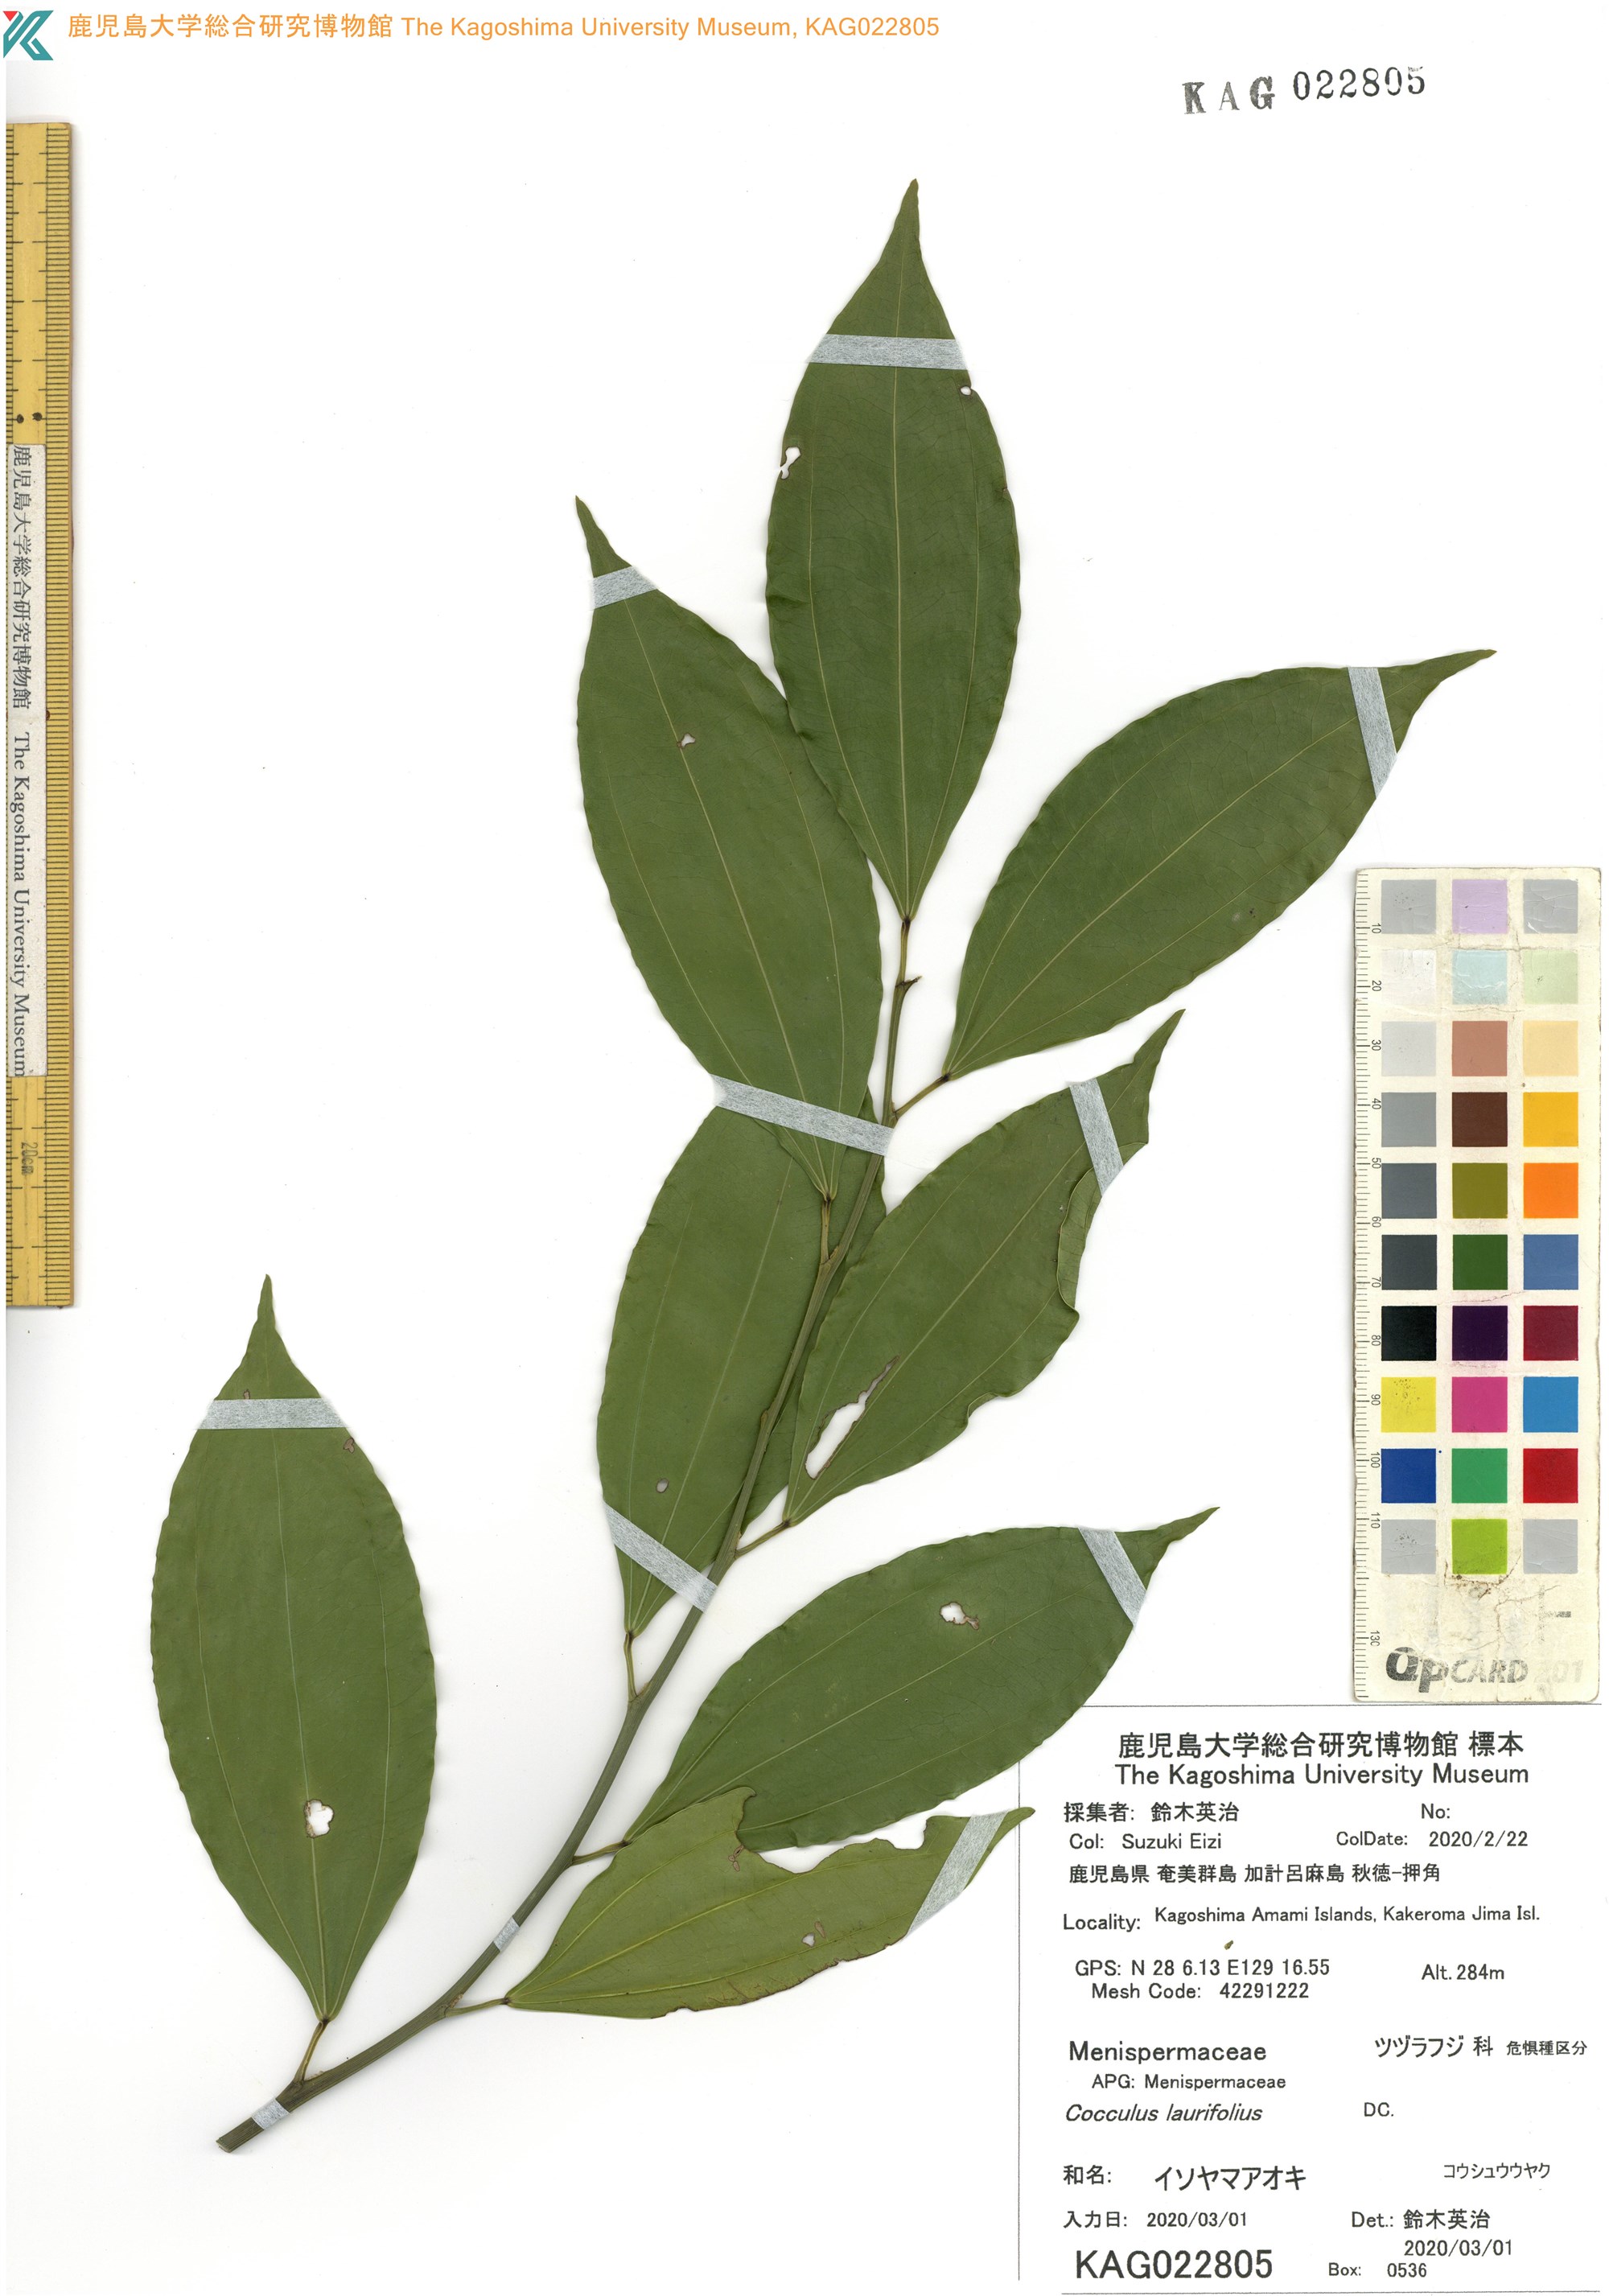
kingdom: Plantae
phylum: Tracheophyta
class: Magnoliopsida
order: Ranunculales
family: Menispermaceae
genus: Cocculus
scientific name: Cocculus laurifolius
